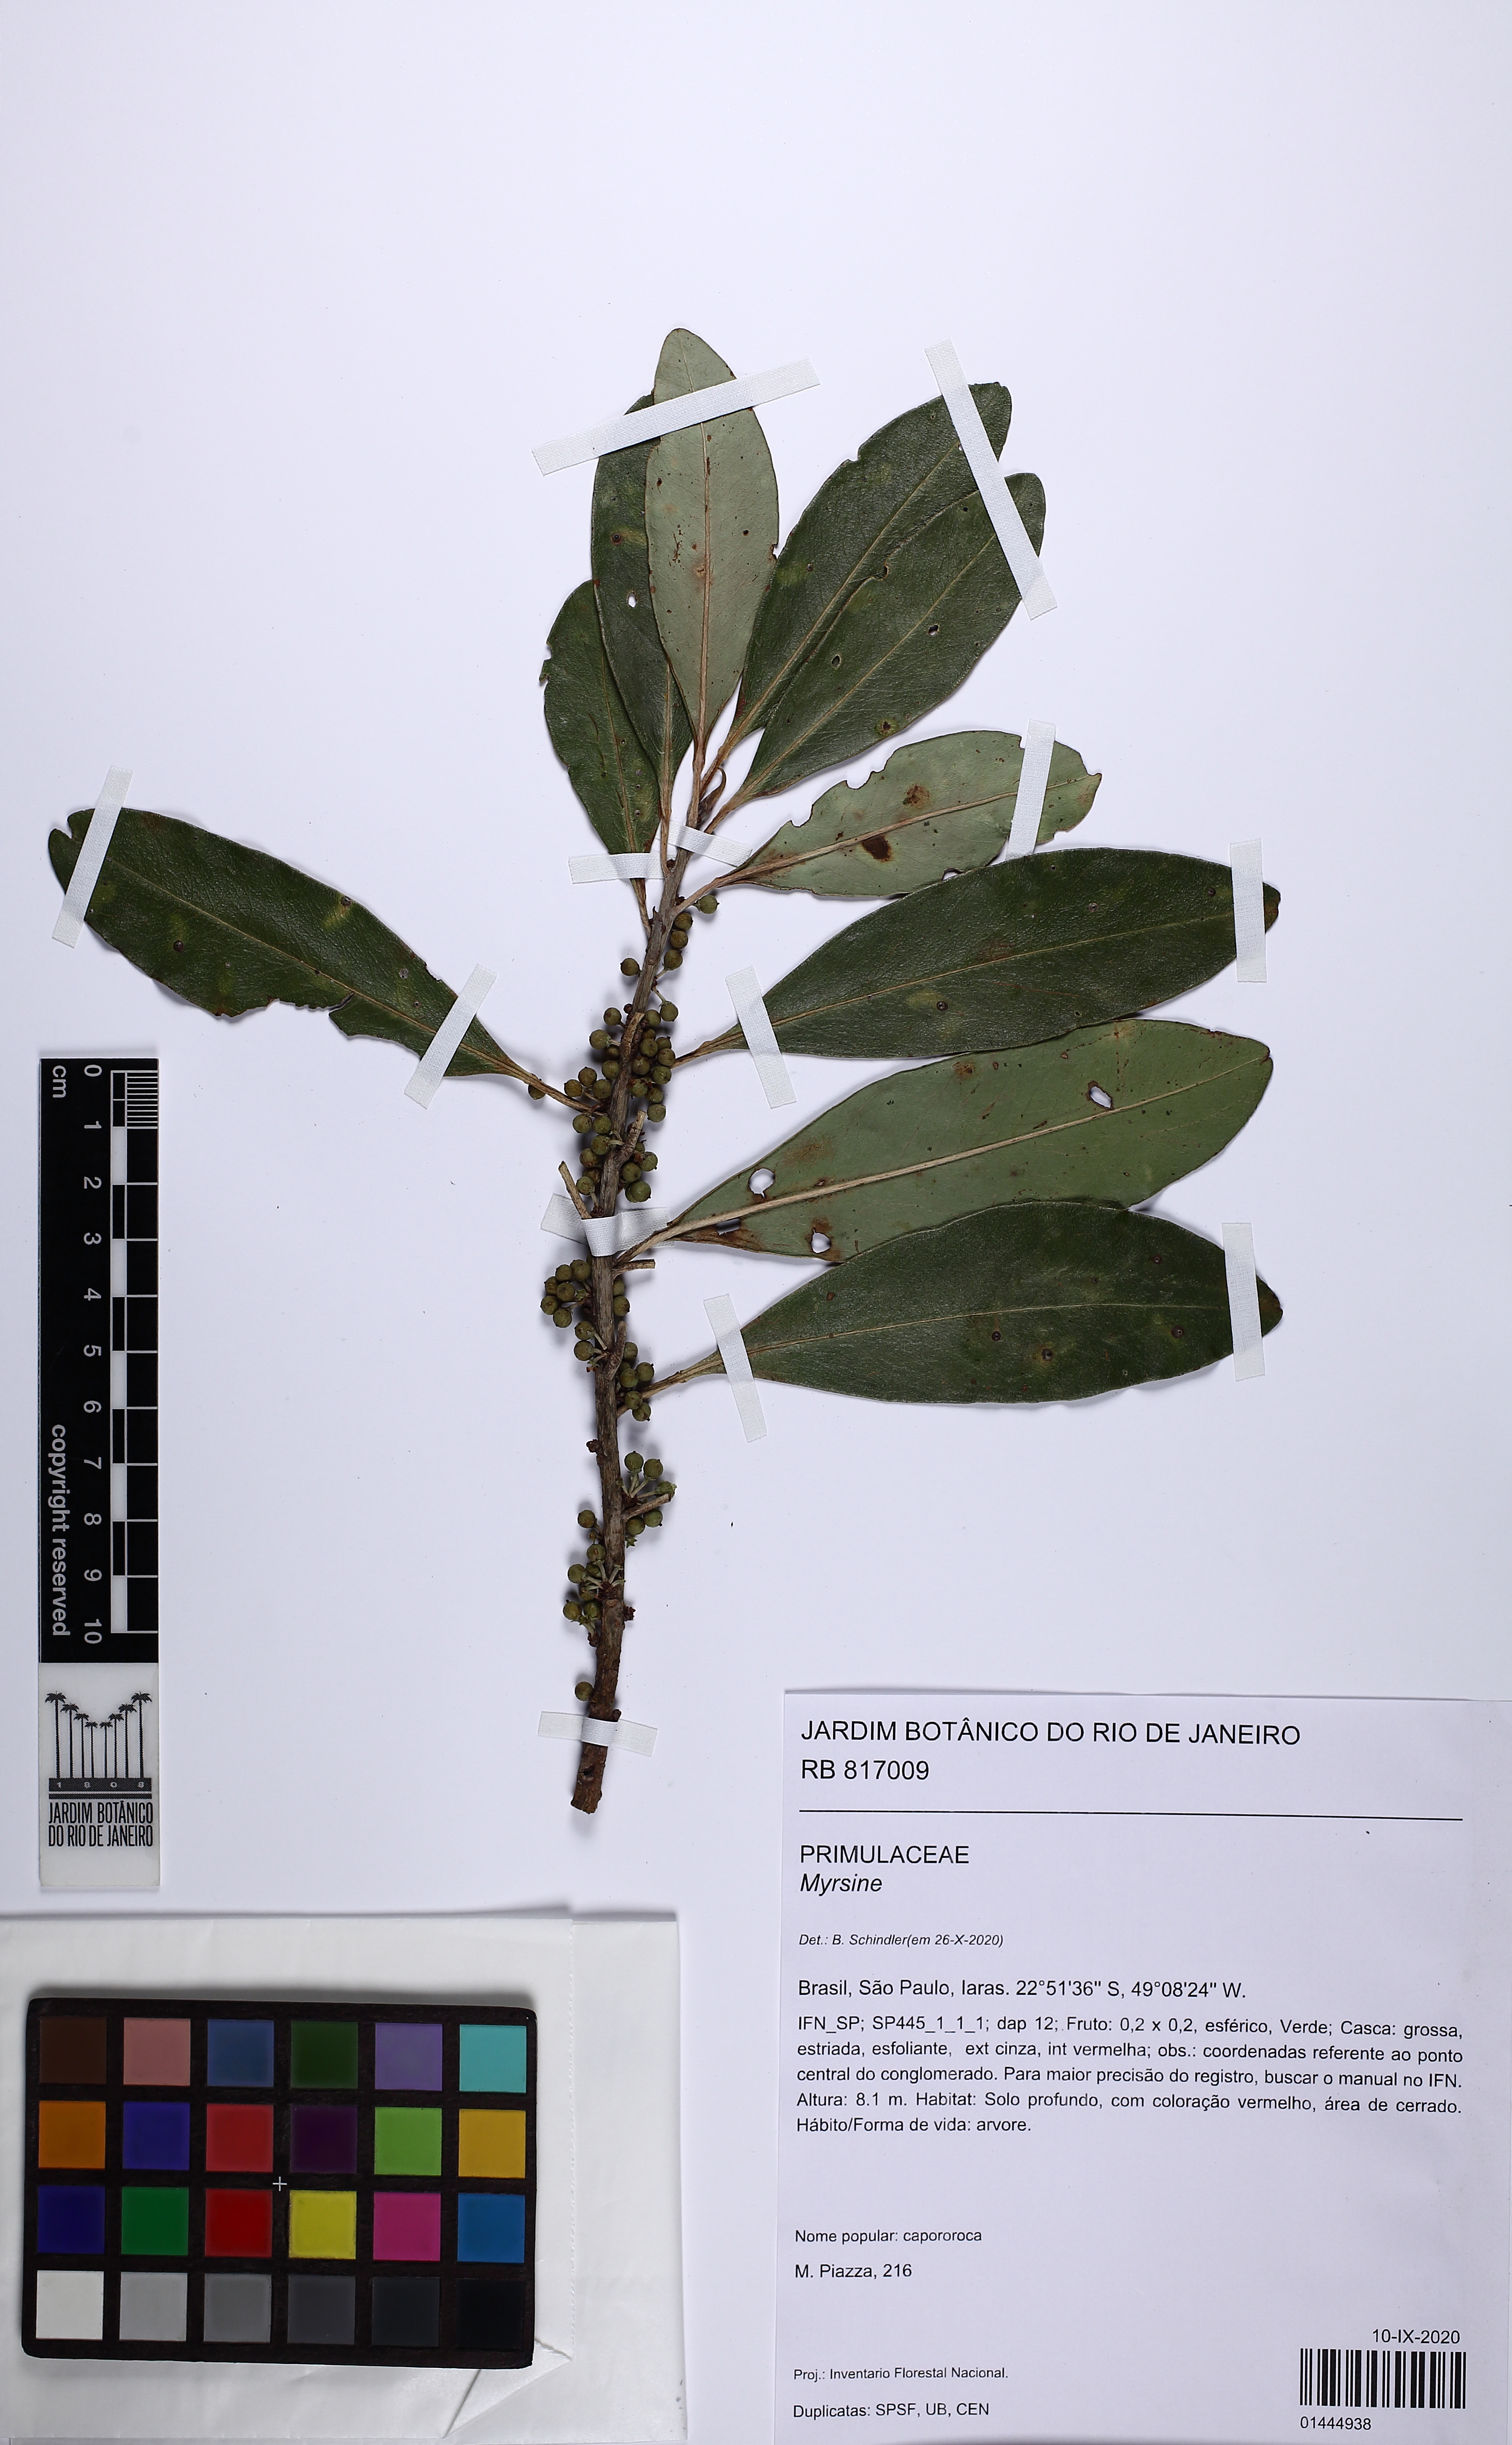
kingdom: Plantae
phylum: Tracheophyta
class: Magnoliopsida
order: Ericales
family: Primulaceae
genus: Myrsine
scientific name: Myrsine
